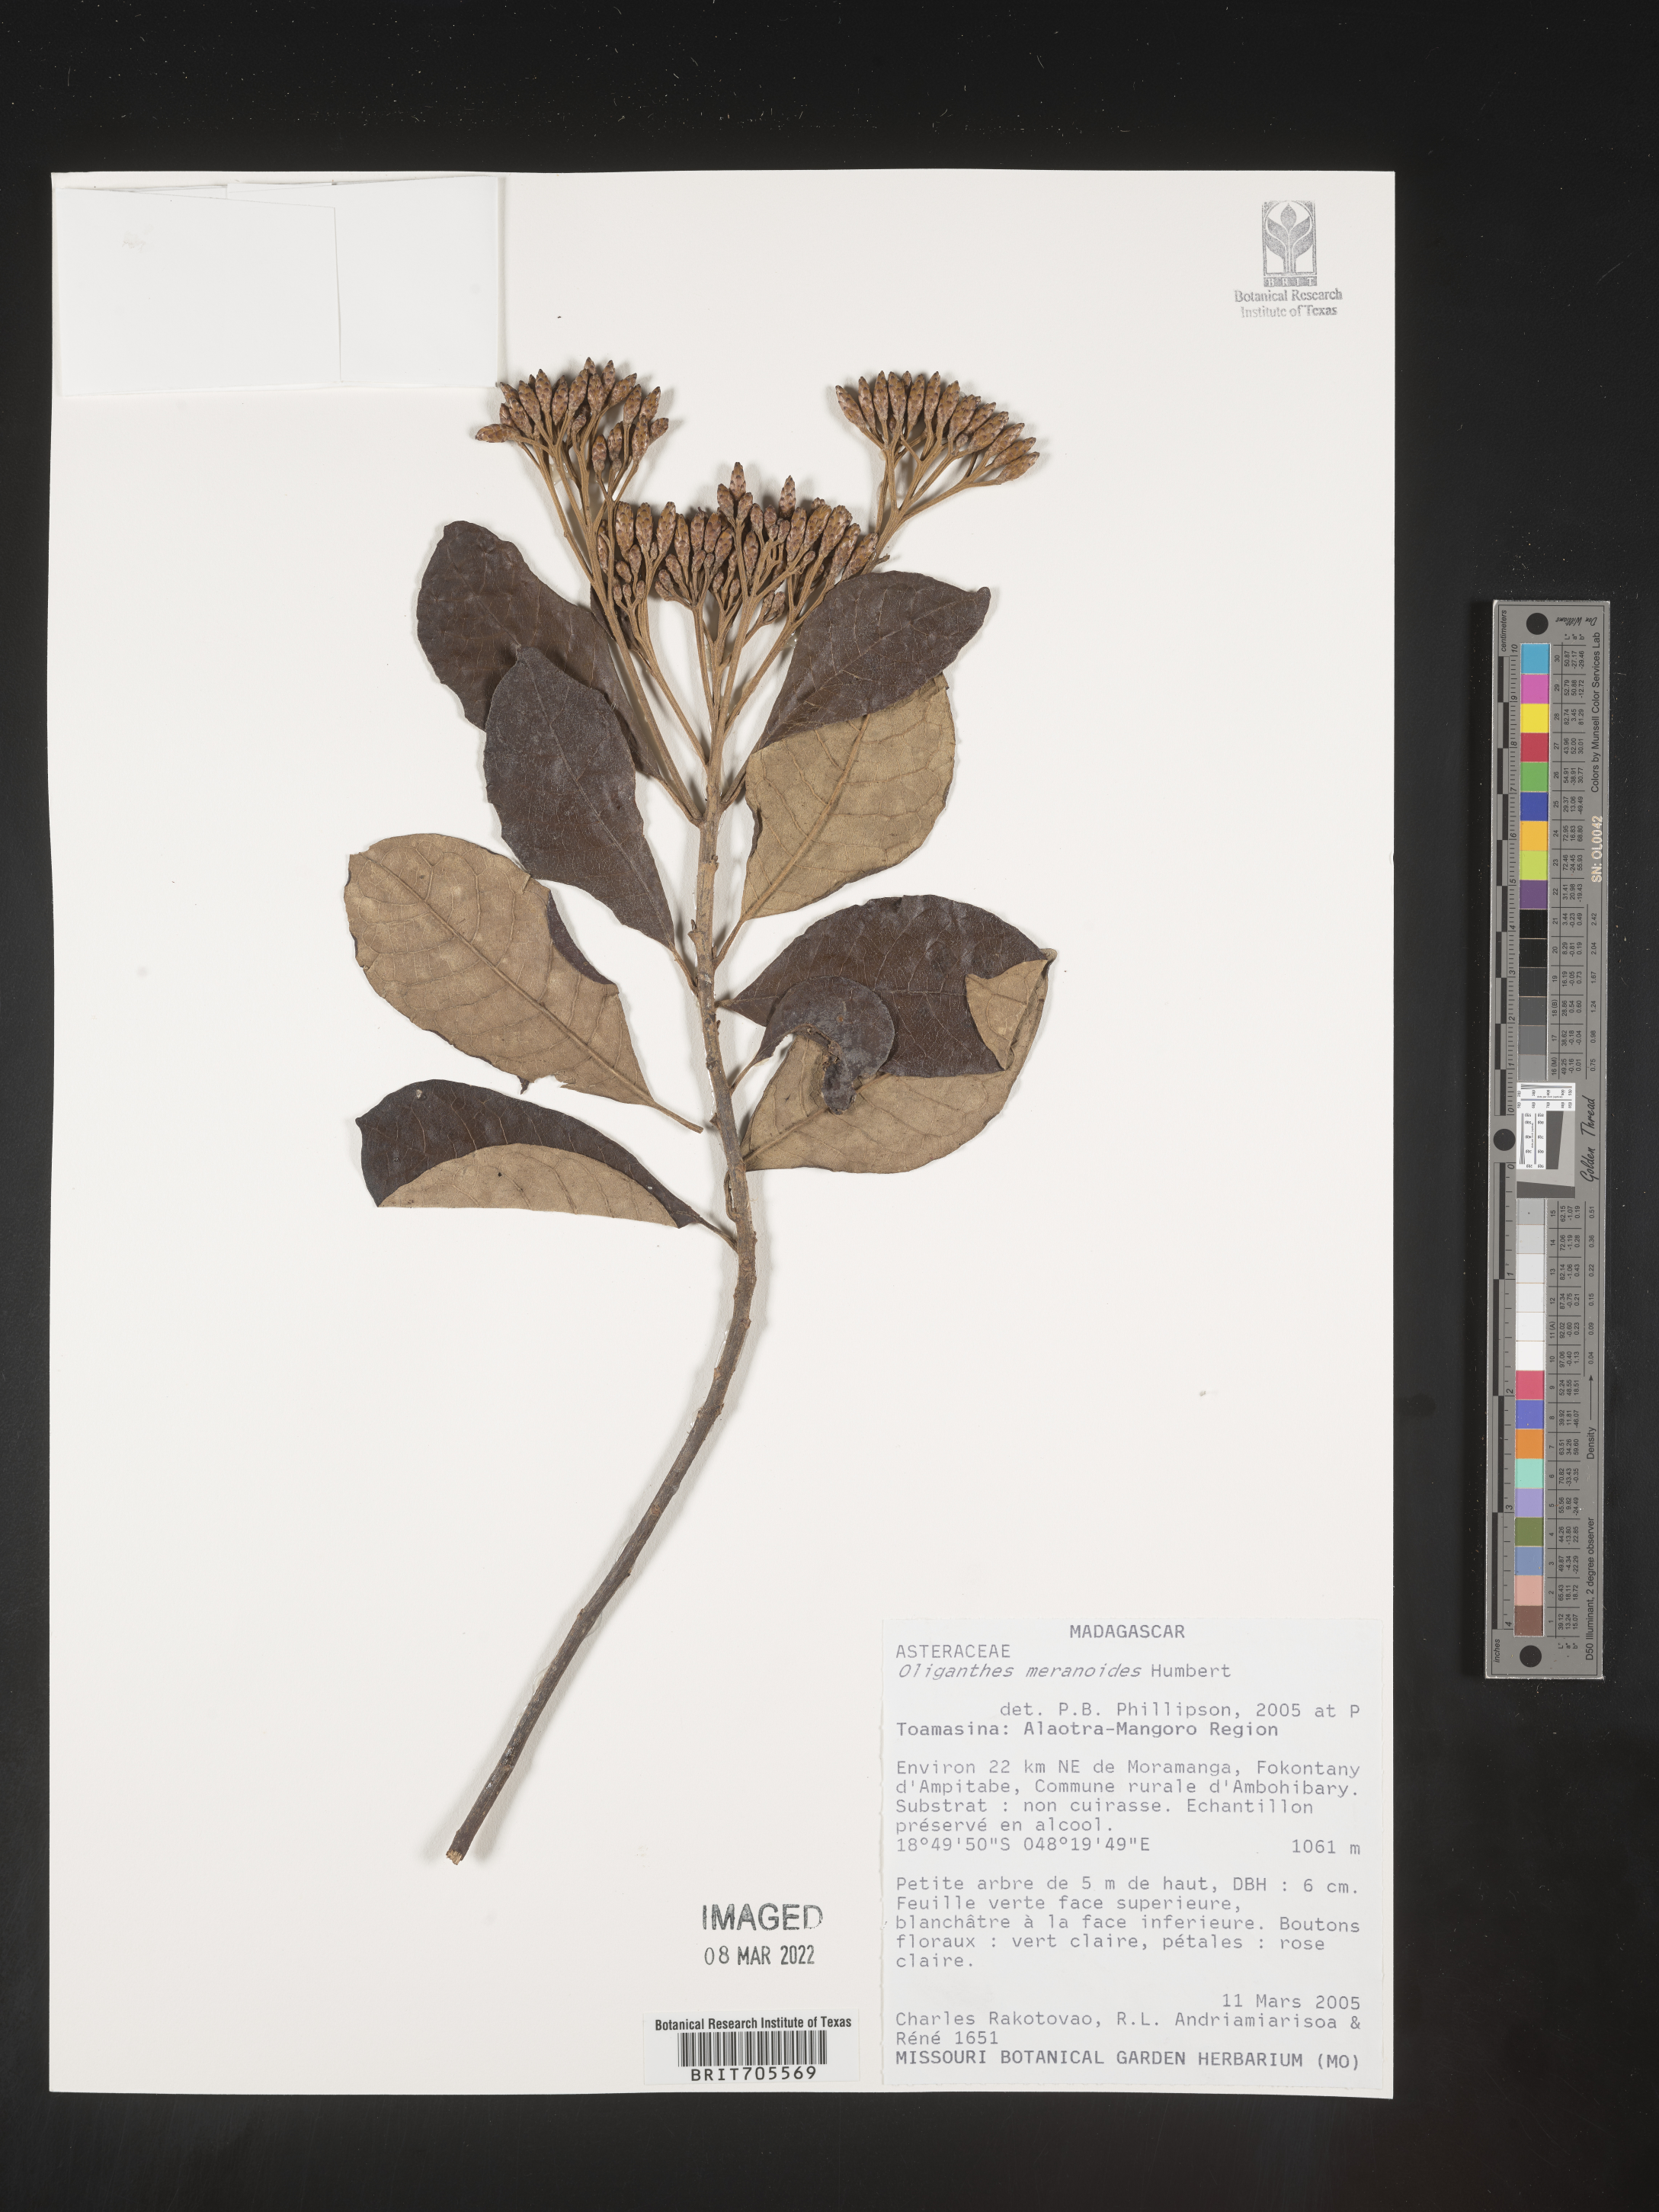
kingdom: Plantae
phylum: Tracheophyta
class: Magnoliopsida
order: Asterales
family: Asteraceae
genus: Oliganthes
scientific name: Oliganthes meranoides
